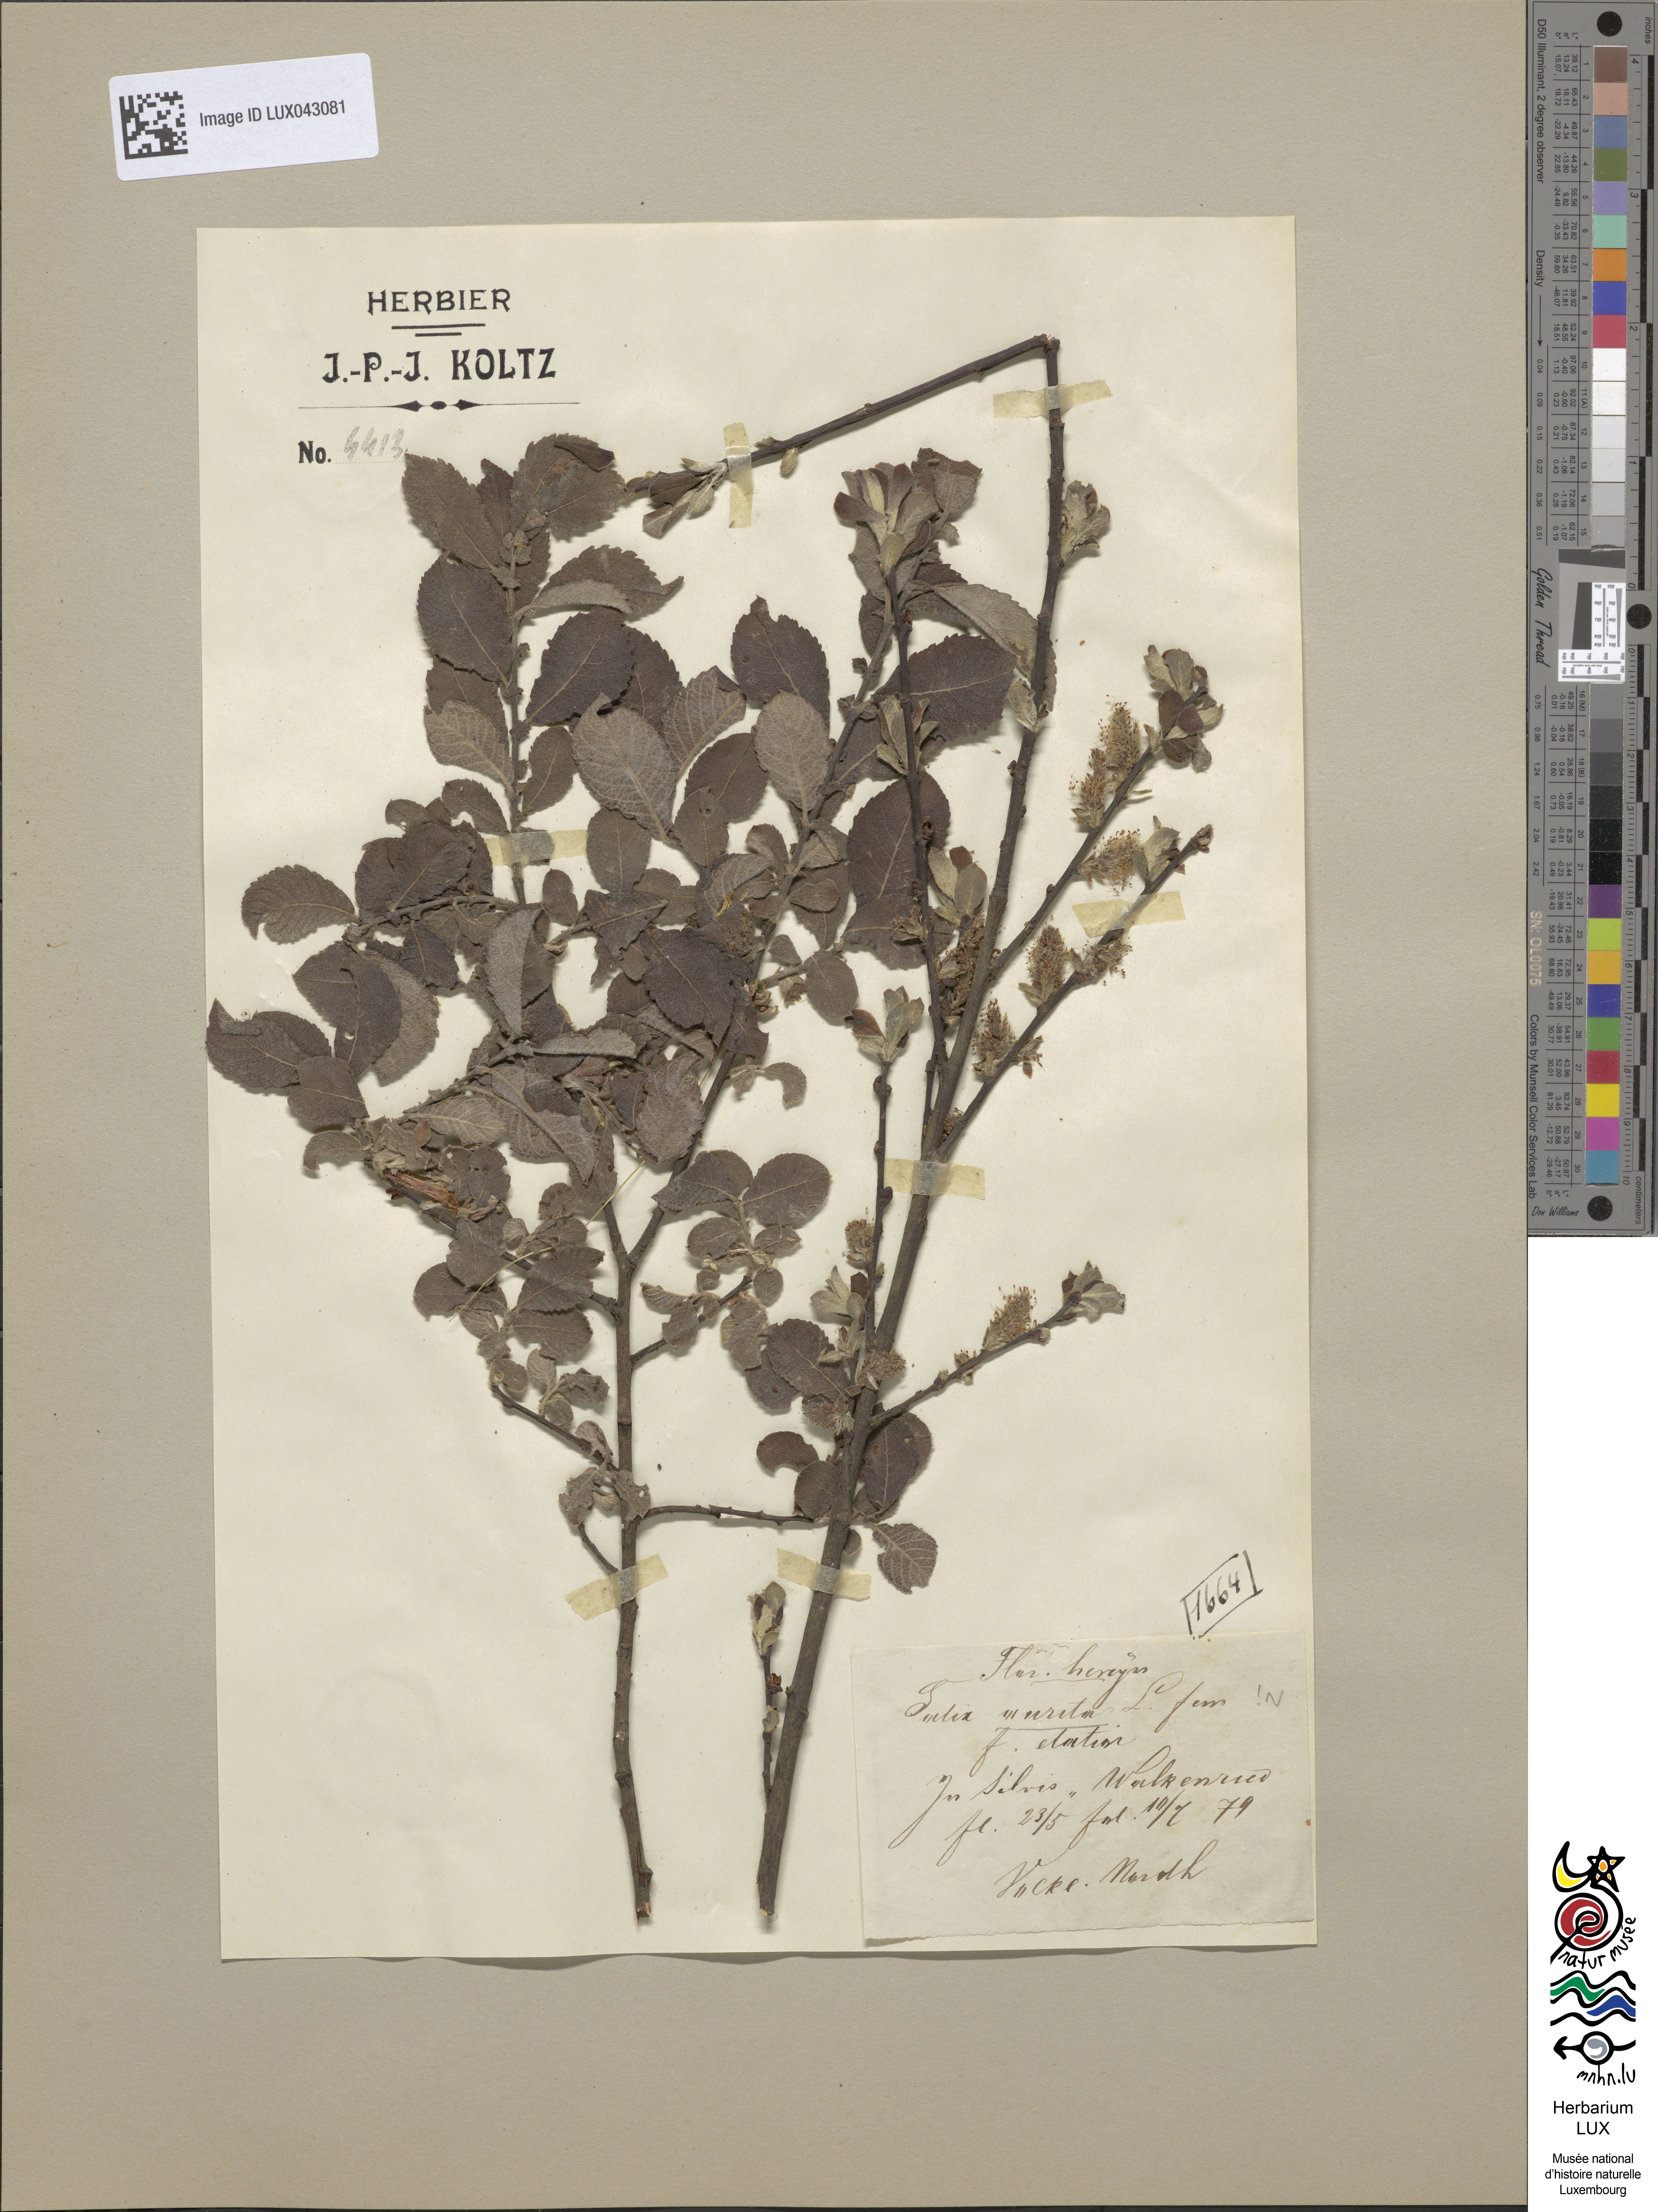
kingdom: Plantae
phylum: Tracheophyta
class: Magnoliopsida
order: Malpighiales
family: Salicaceae
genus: Salix
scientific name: Salix aurita
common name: Eared willow
